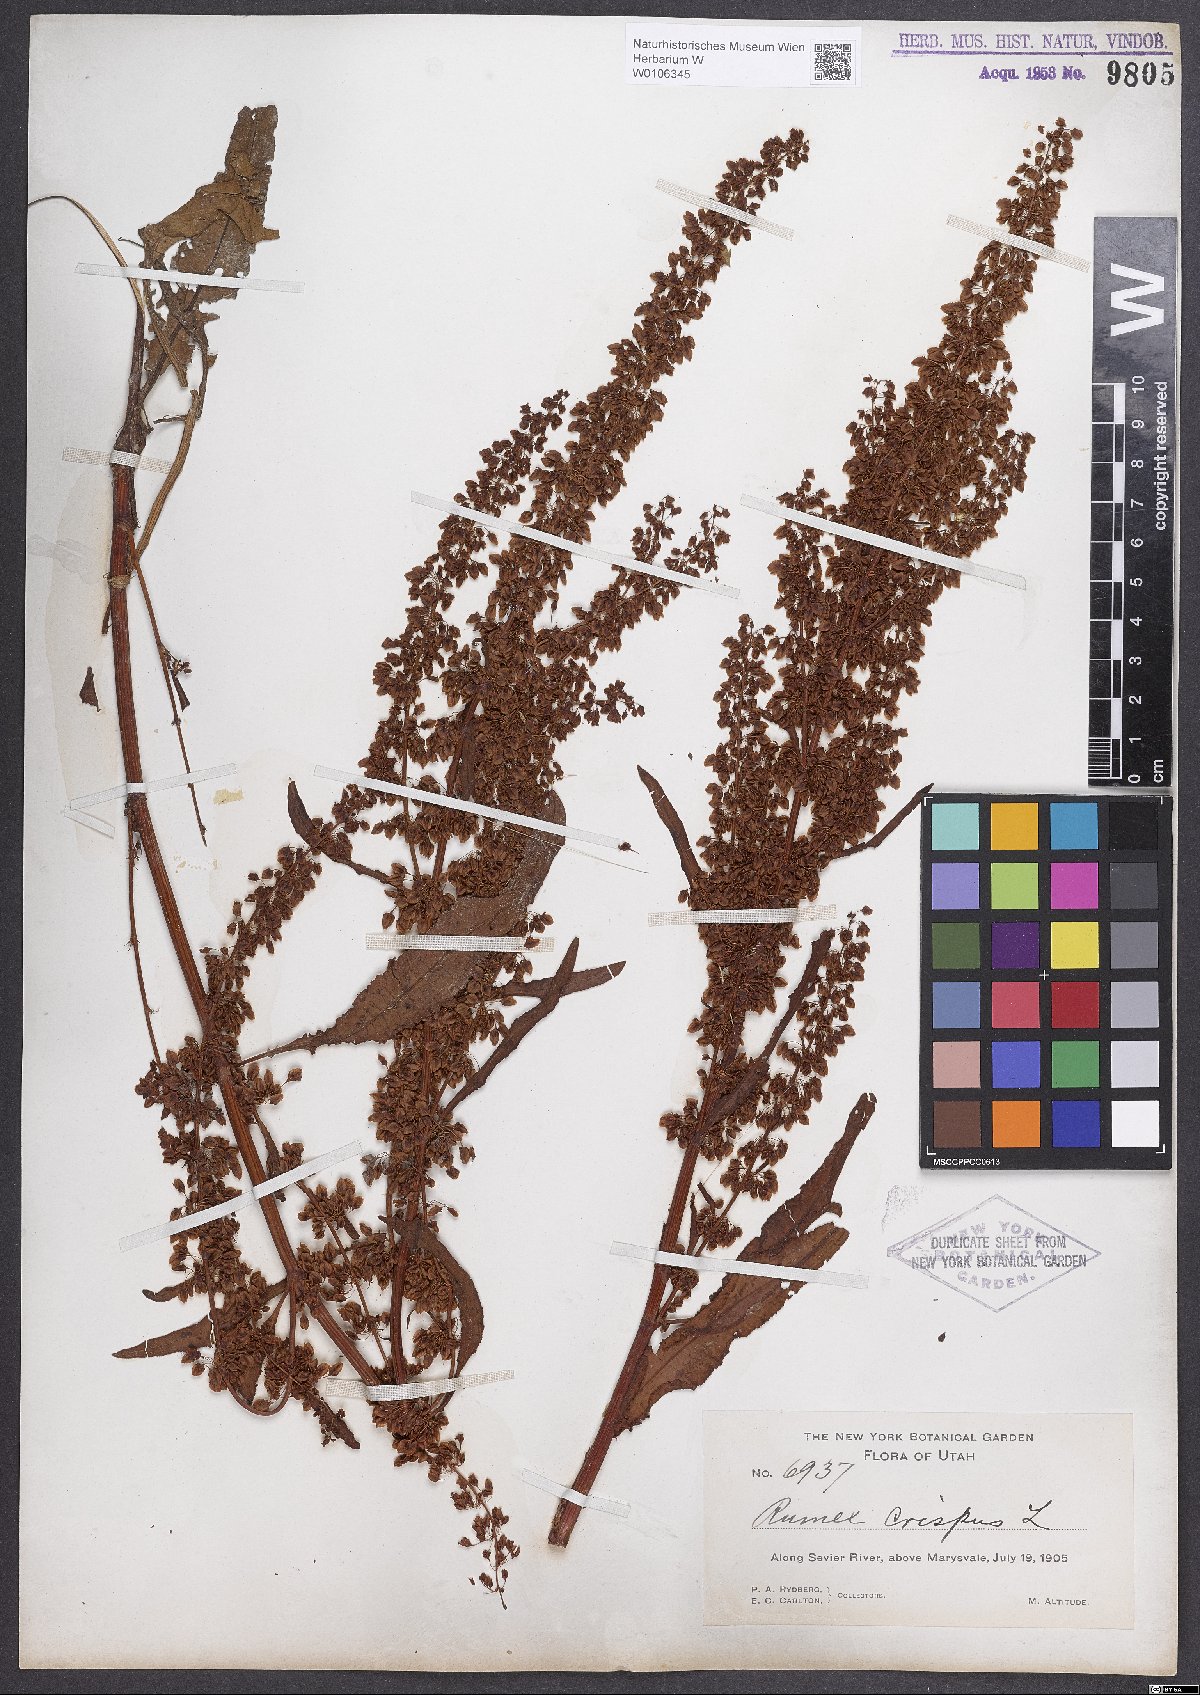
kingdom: Plantae
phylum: Tracheophyta
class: Magnoliopsida
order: Caryophyllales
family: Polygonaceae
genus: Rumex
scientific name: Rumex crispus
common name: Curled dock
